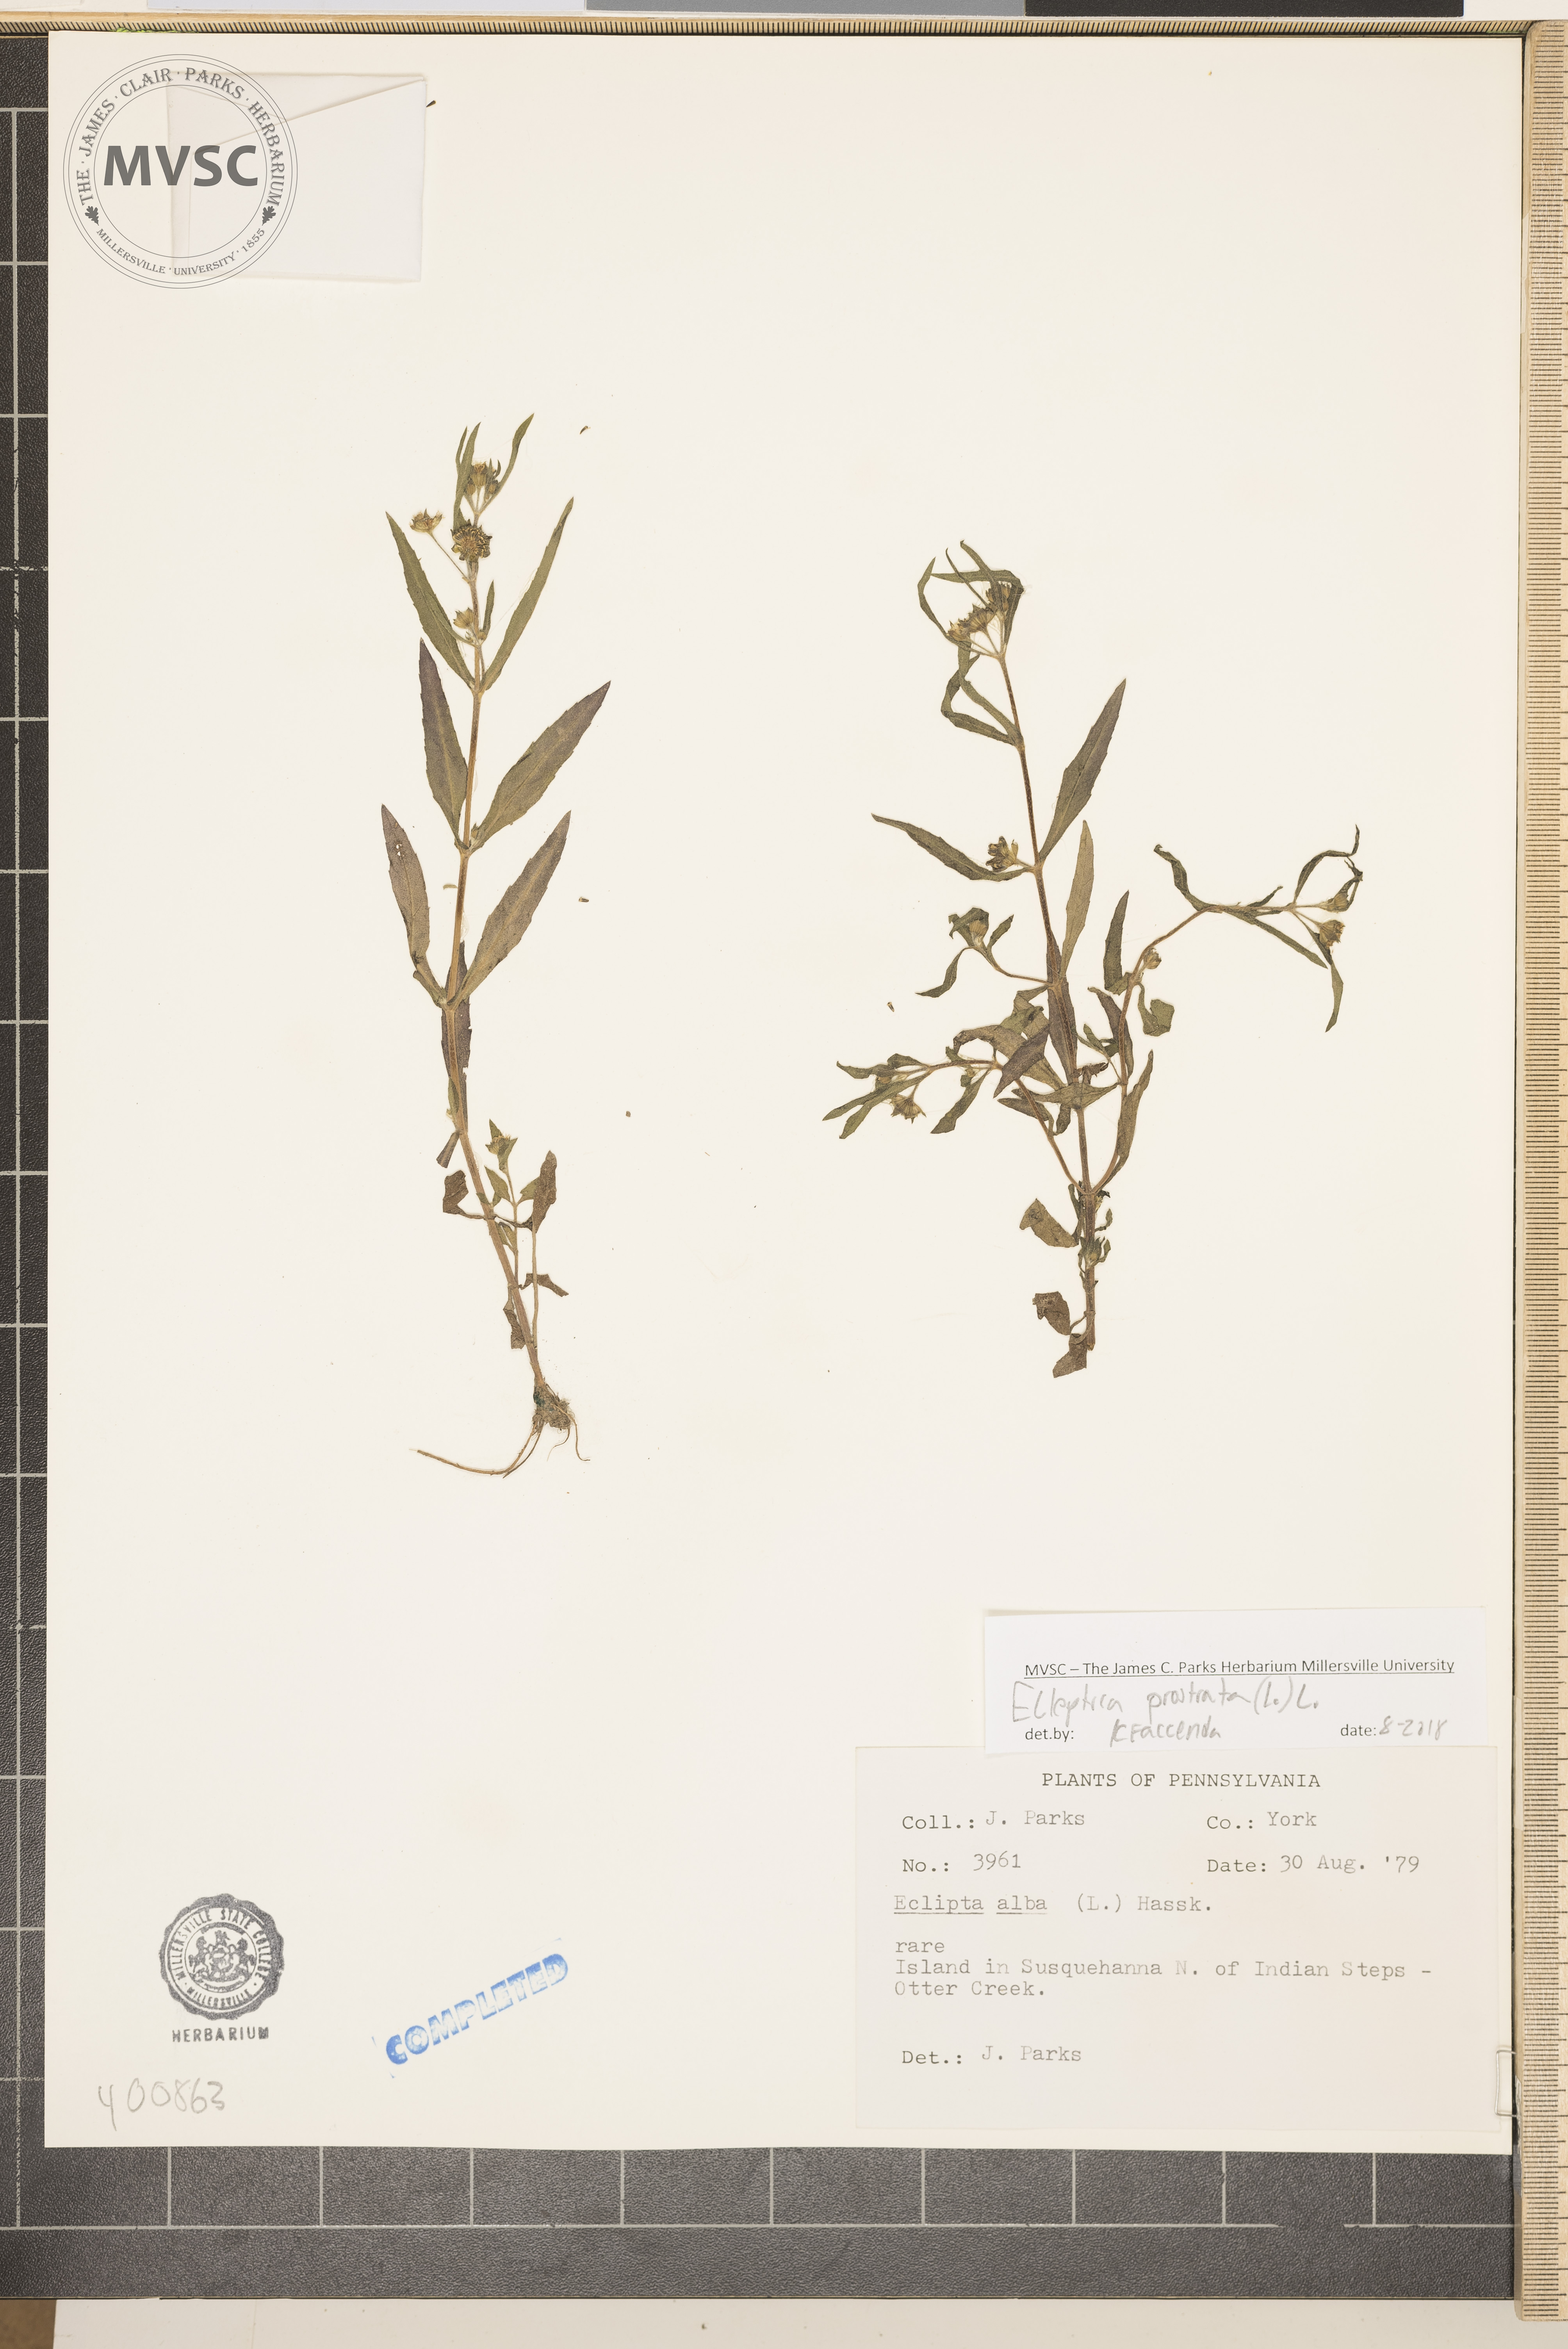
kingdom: Plantae
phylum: Tracheophyta
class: Magnoliopsida
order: Asterales
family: Asteraceae
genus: Eclipta
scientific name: Eclipta prostrata
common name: False daisy
